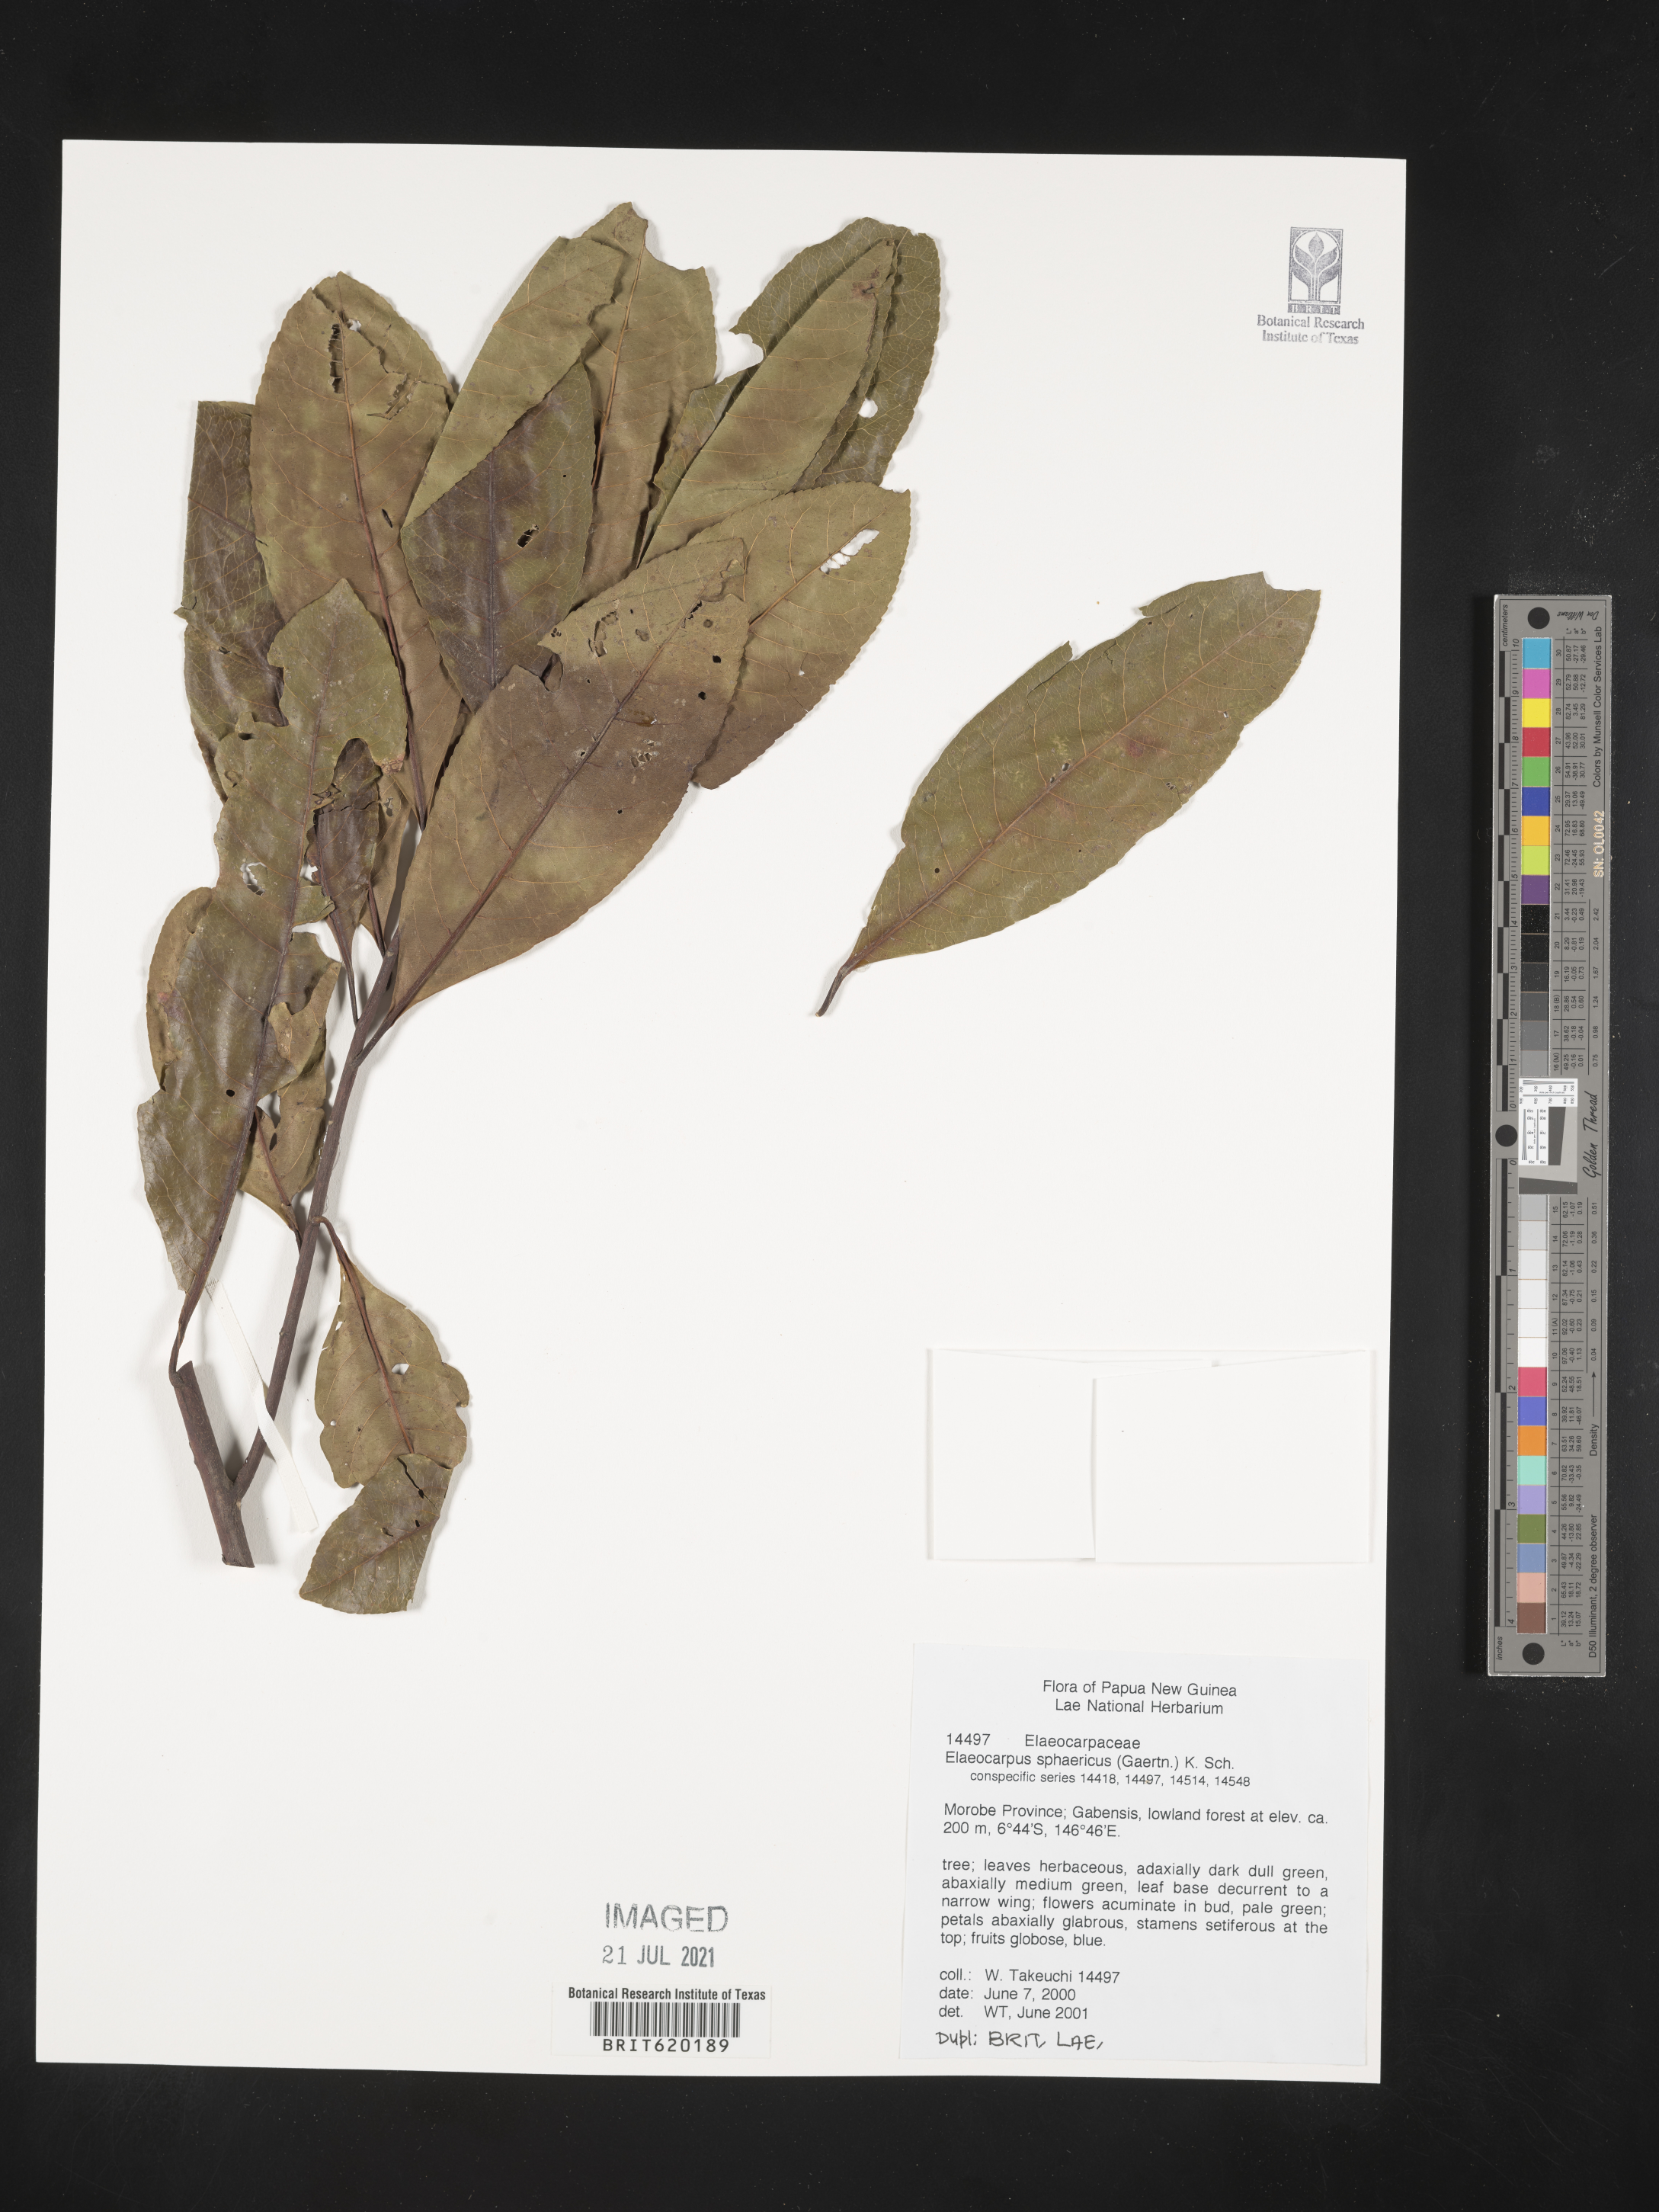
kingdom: Plantae
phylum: Tracheophyta
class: Magnoliopsida
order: Oxalidales
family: Elaeocarpaceae
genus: Elaeocarpus
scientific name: Elaeocarpus sphaericus
